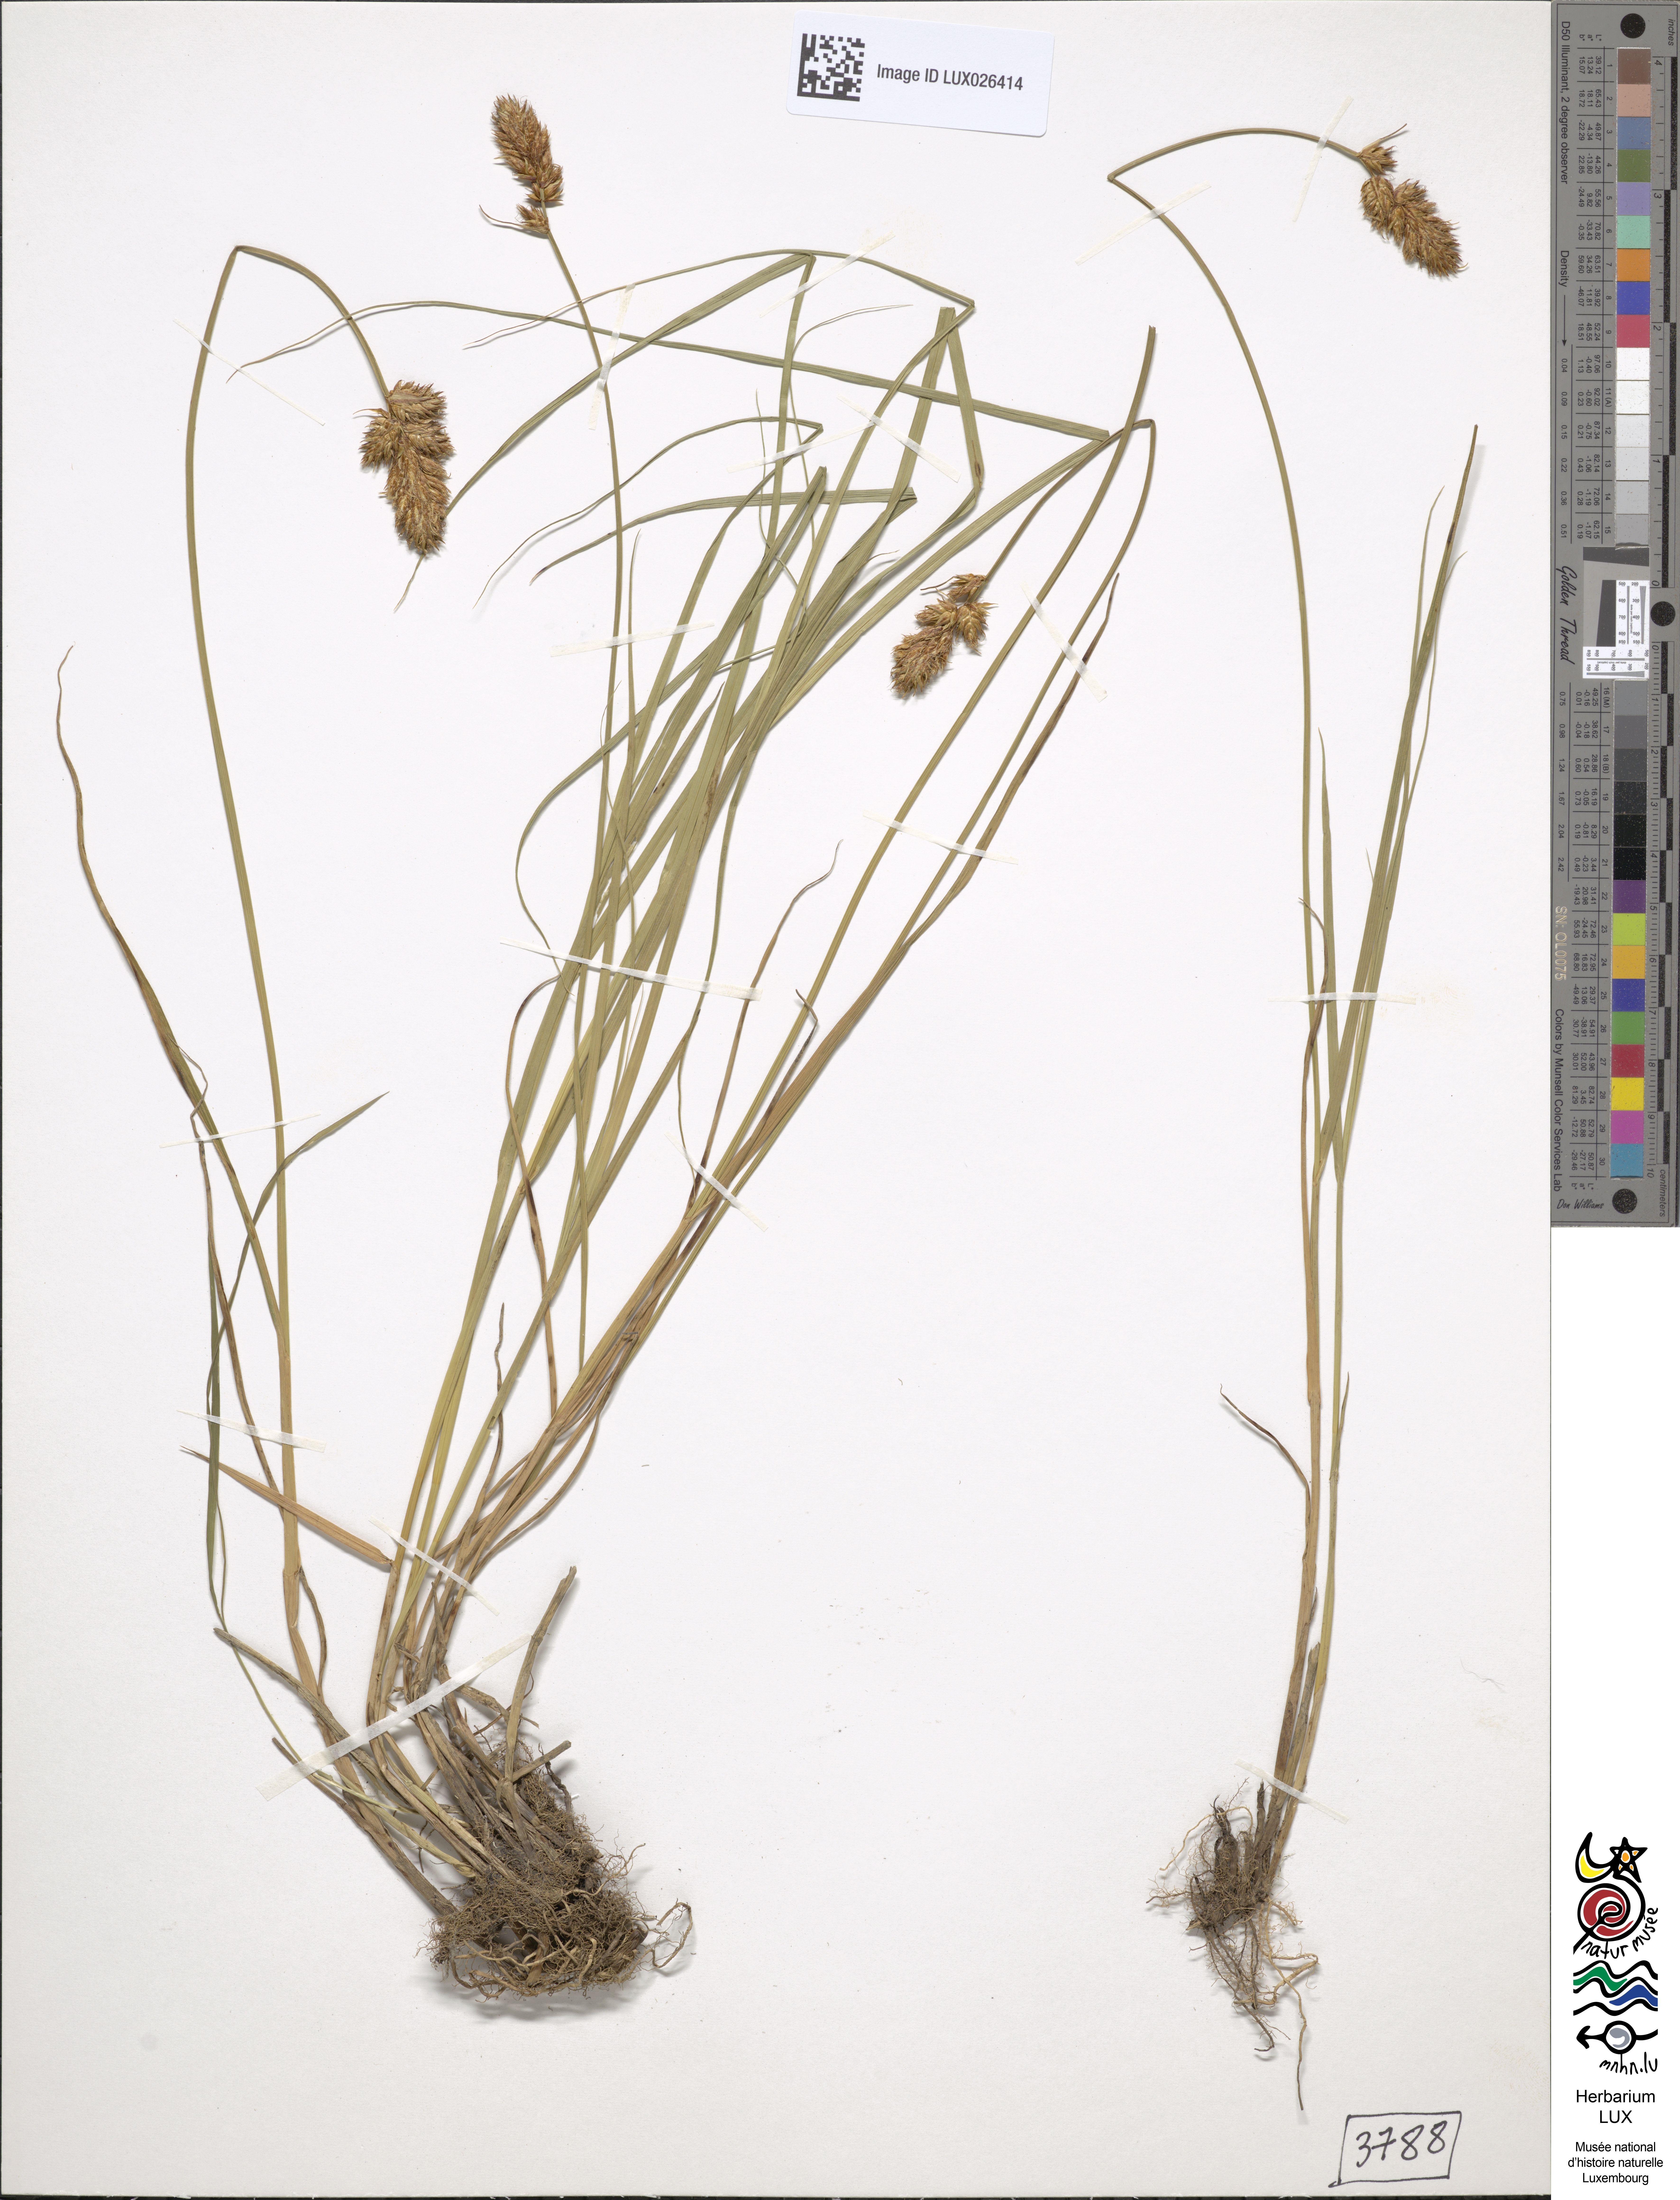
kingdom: Plantae
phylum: Tracheophyta
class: Liliopsida
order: Poales
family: Cyperaceae
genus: Carex
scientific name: Carex disticha
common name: Brown sedge
